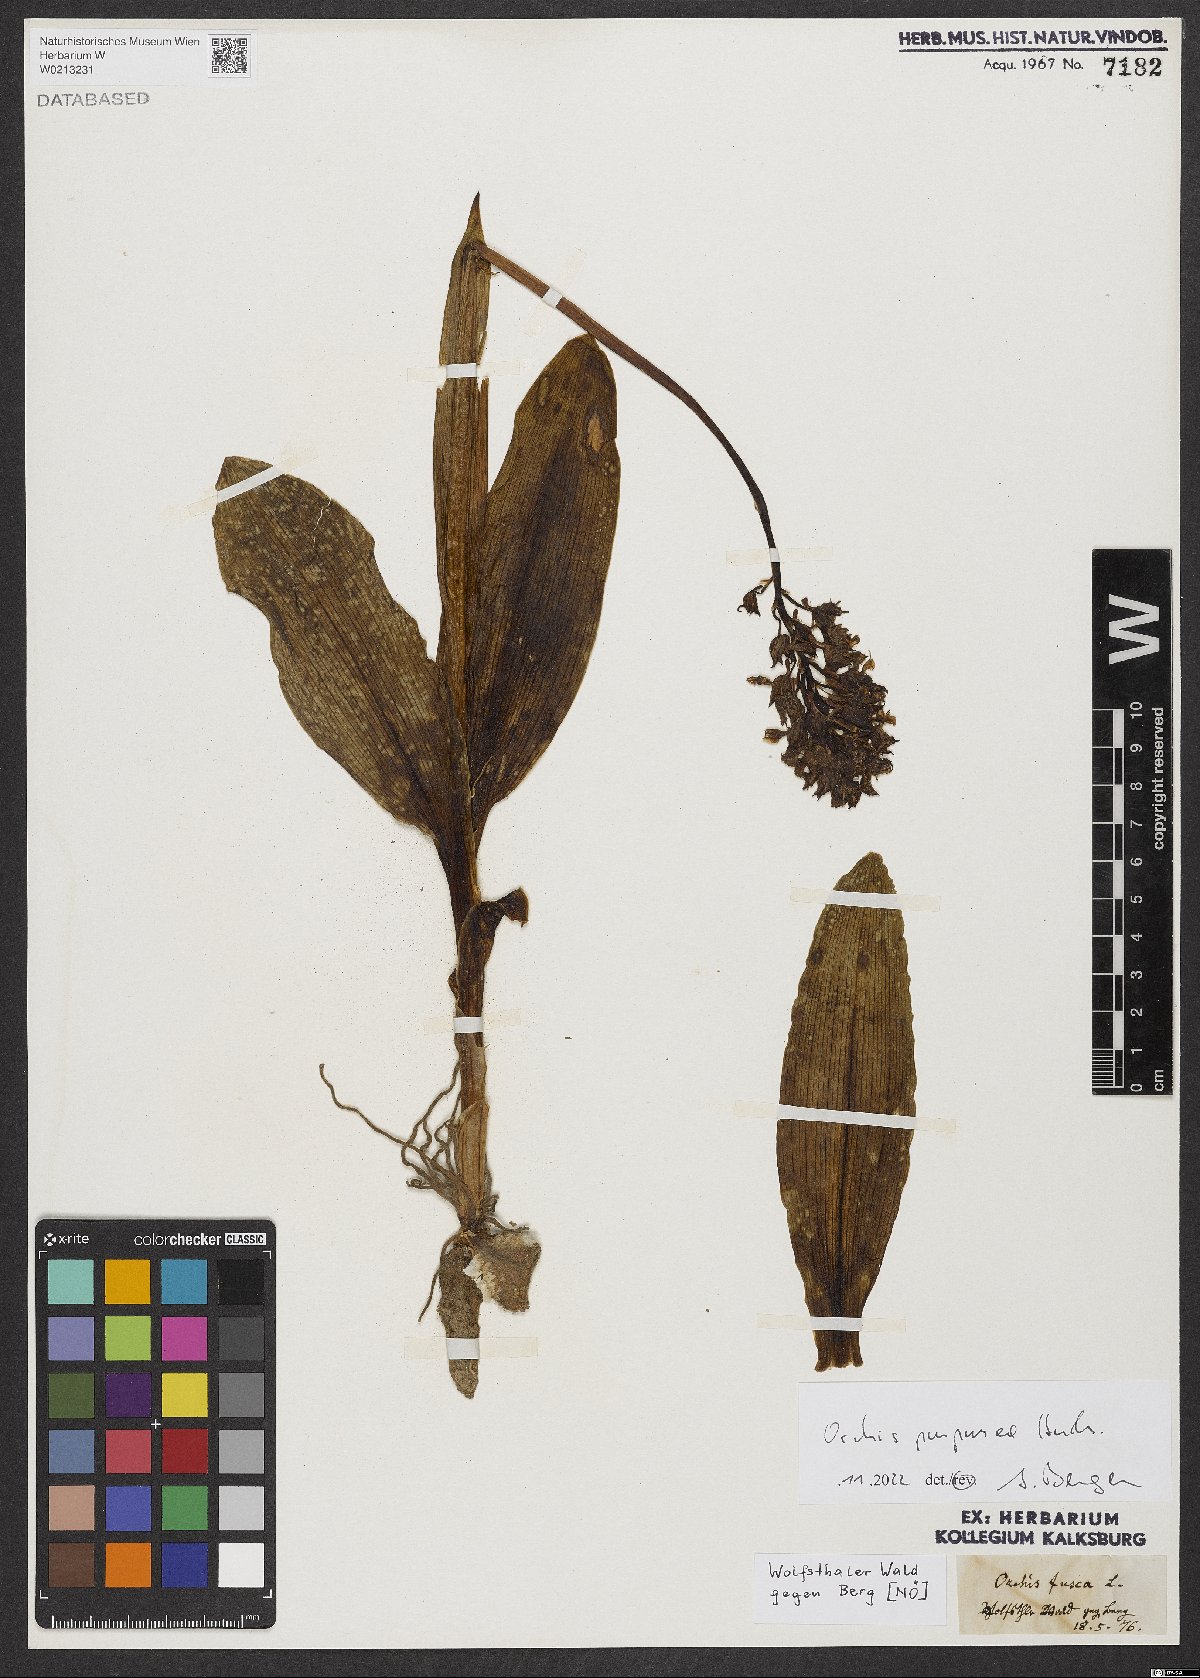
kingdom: Plantae
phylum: Tracheophyta
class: Liliopsida
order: Asparagales
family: Orchidaceae
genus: Orchis
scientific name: Orchis purpurea
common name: Lady orchid
